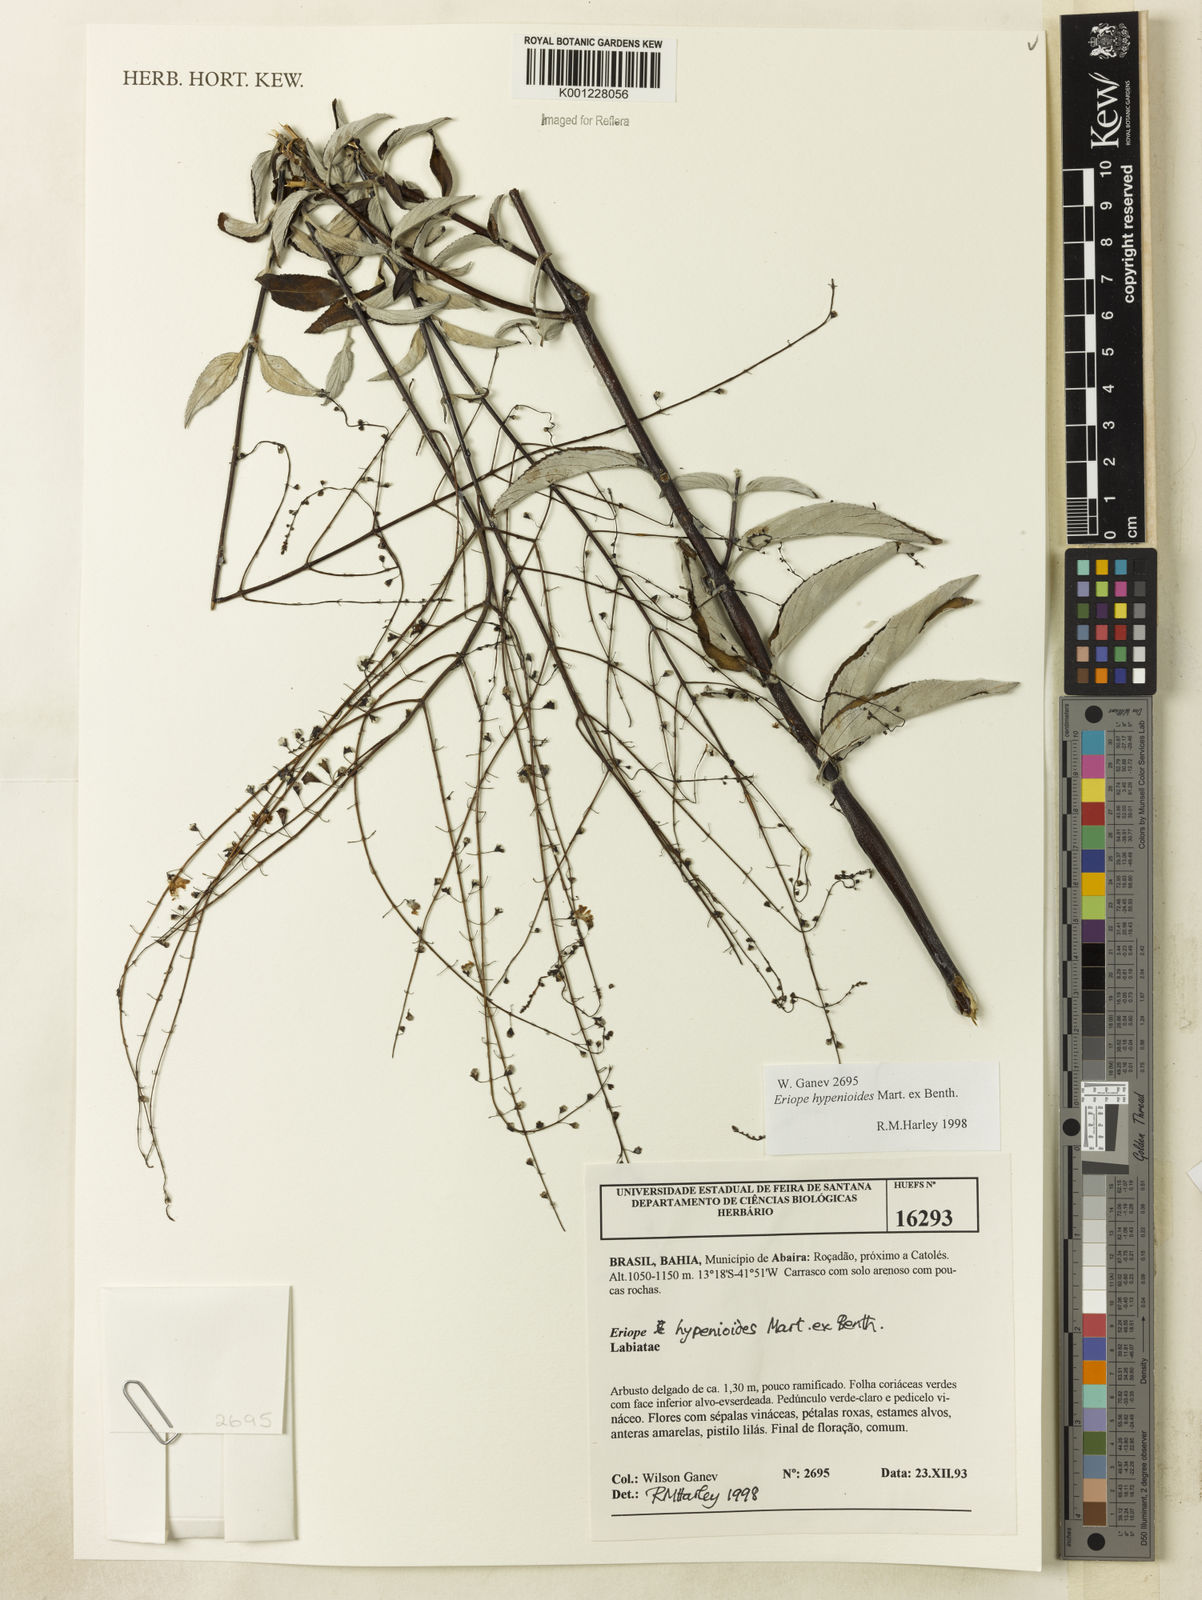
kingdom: Plantae
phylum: Tracheophyta
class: Magnoliopsida
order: Lamiales
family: Lamiaceae
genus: Eriope
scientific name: Eriope hypenioides
